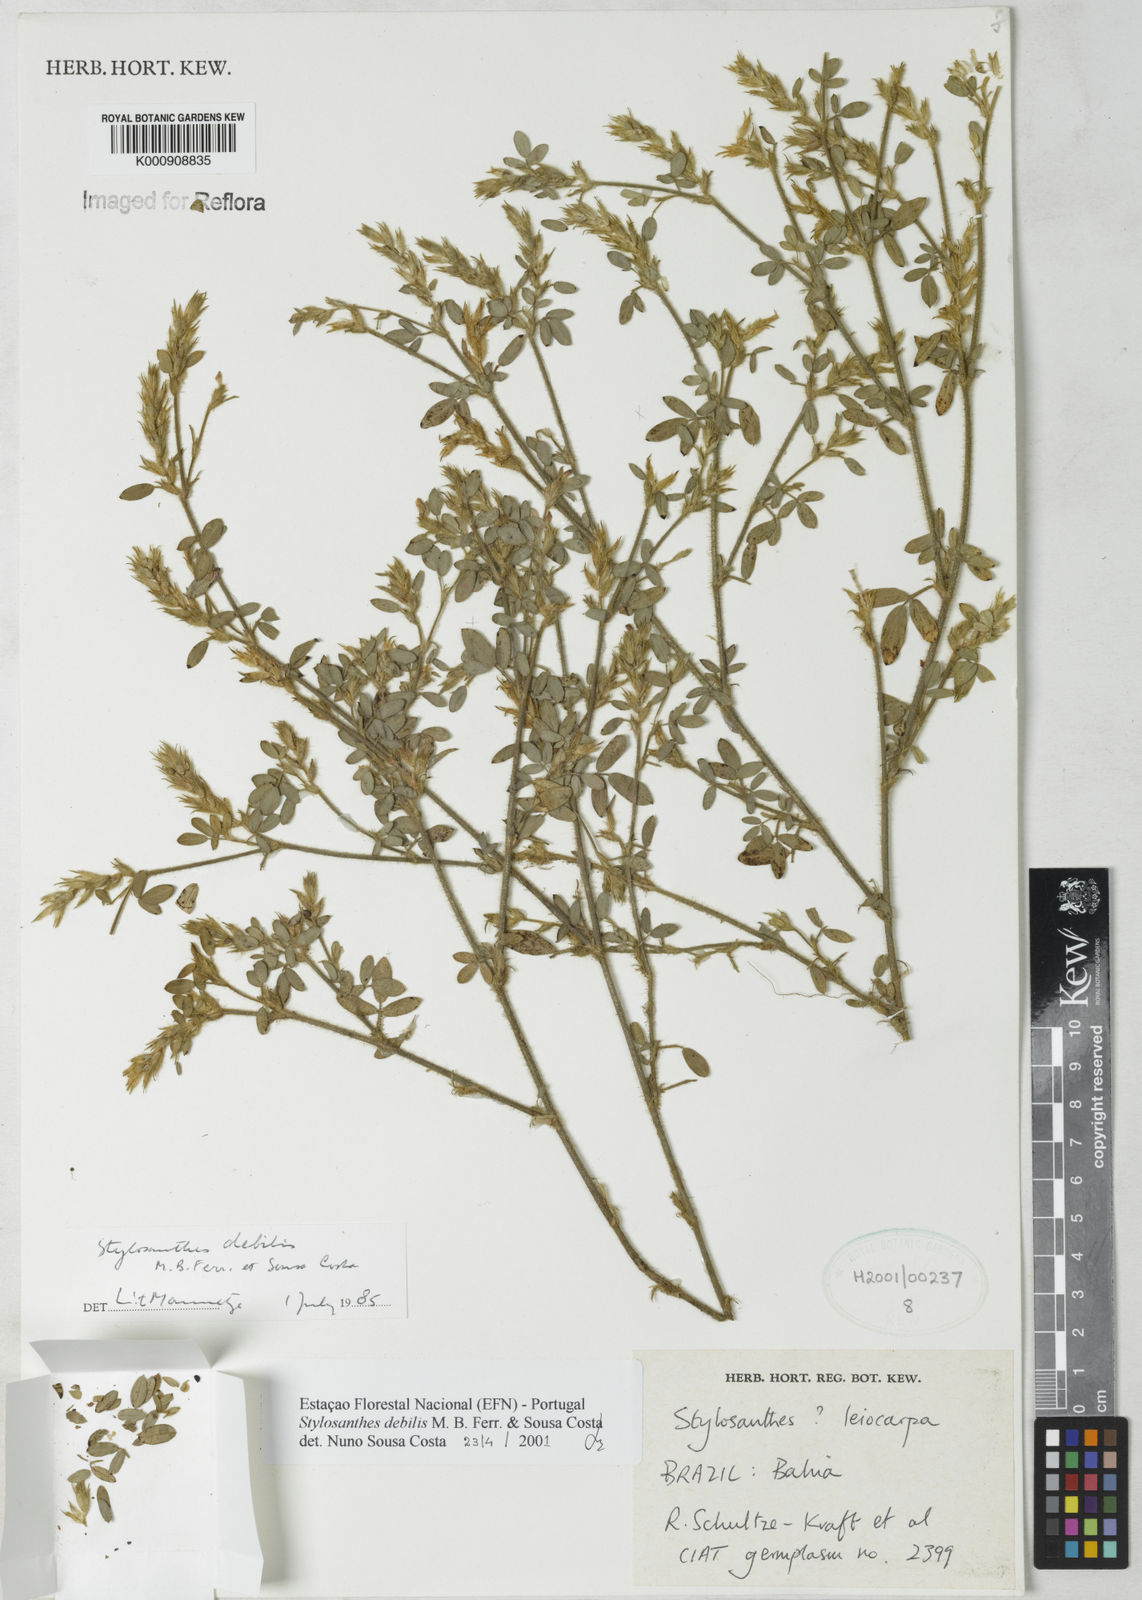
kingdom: Plantae
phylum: Tracheophyta
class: Magnoliopsida
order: Fabales
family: Fabaceae
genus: Stylosanthes
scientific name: Stylosanthes viscosa
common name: Viscid pencil-flower
